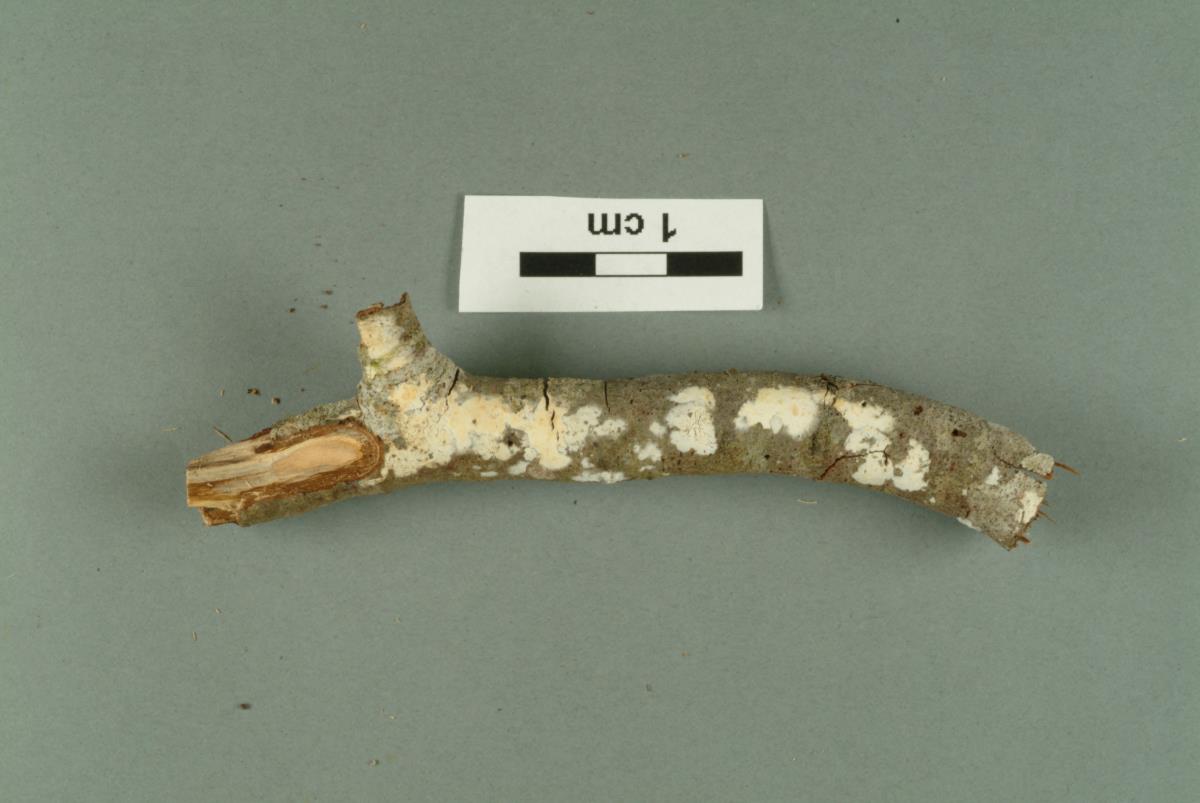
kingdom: Fungi
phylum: Basidiomycota
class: Agaricomycetes
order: Polyporales
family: Hyphodermataceae
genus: Hyphoderma
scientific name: Hyphoderma litschaueri
